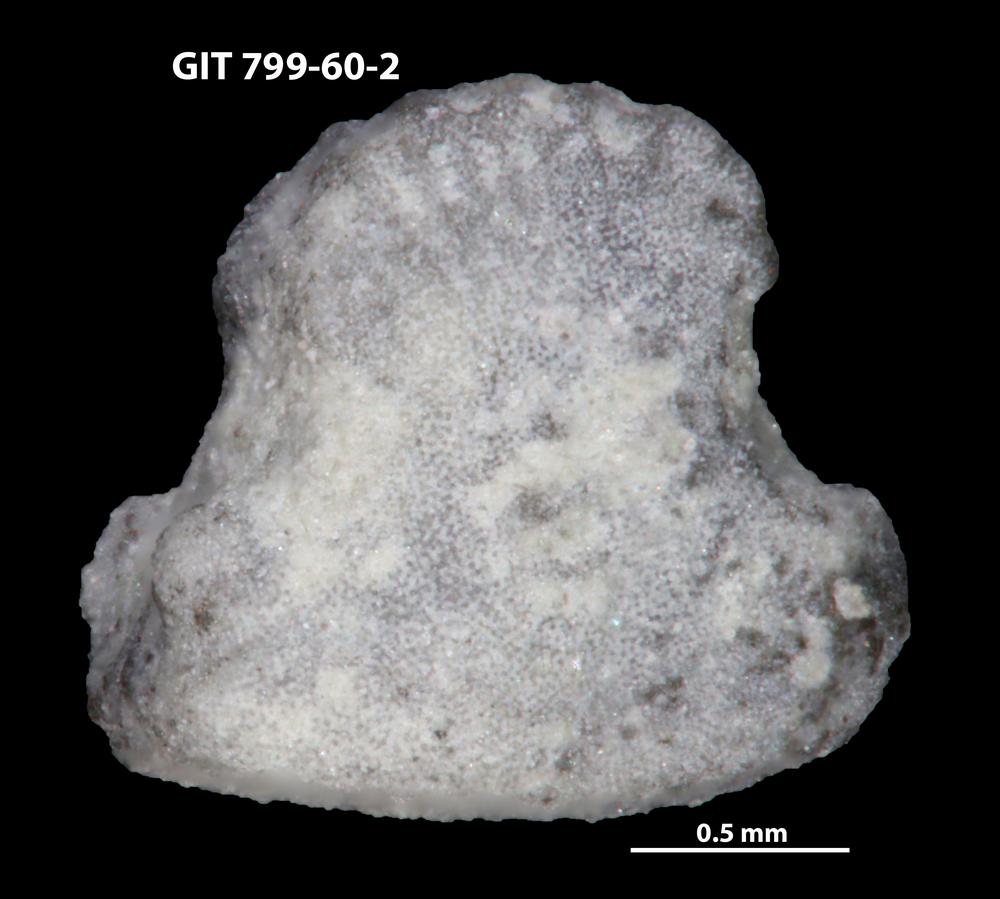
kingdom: Animalia
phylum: Echinodermata
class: Crinoidea
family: Cyclocystoididae
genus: Polytryphocycloides
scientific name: Polytryphocycloides Cyclocystoides lindstroemi
